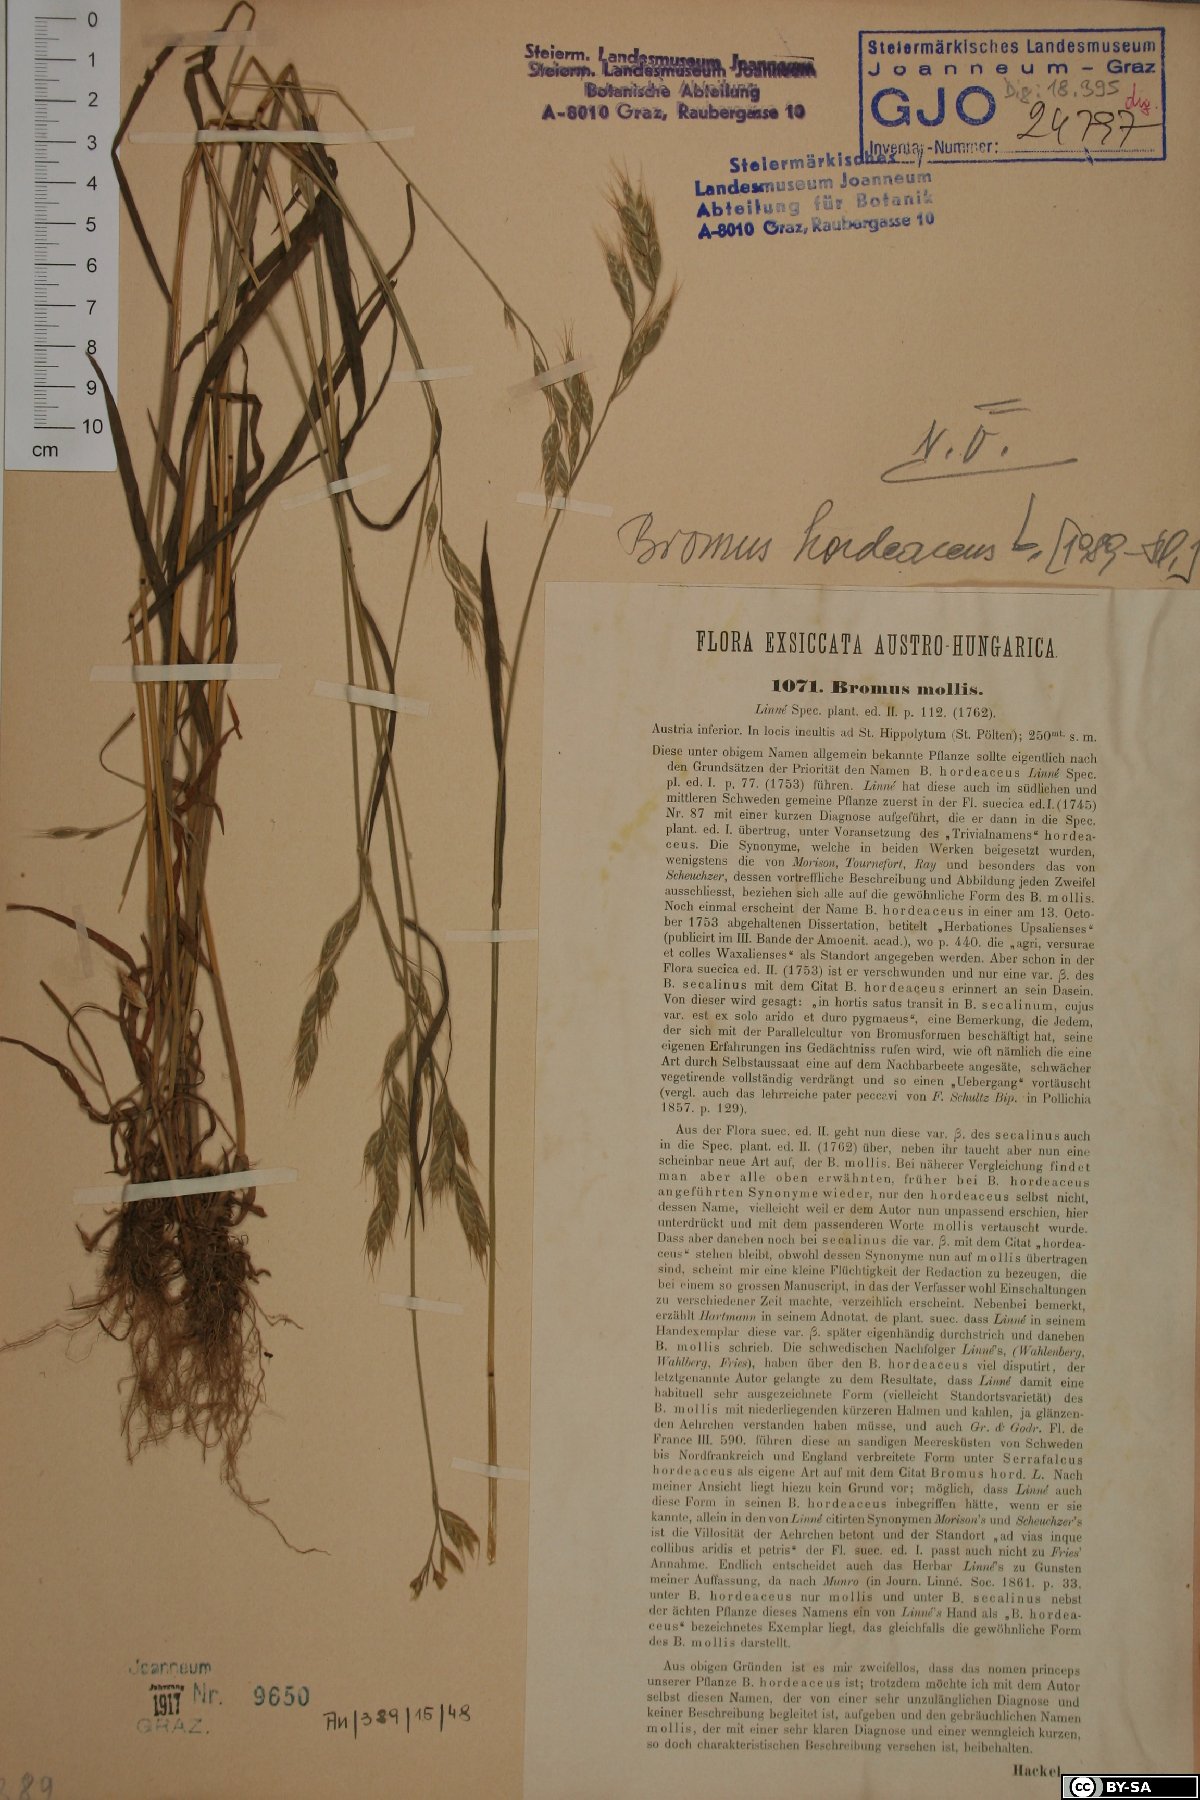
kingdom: Plantae
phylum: Tracheophyta
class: Liliopsida
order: Poales
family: Poaceae
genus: Bromus
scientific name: Bromus hordeaceus
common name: Soft brome
